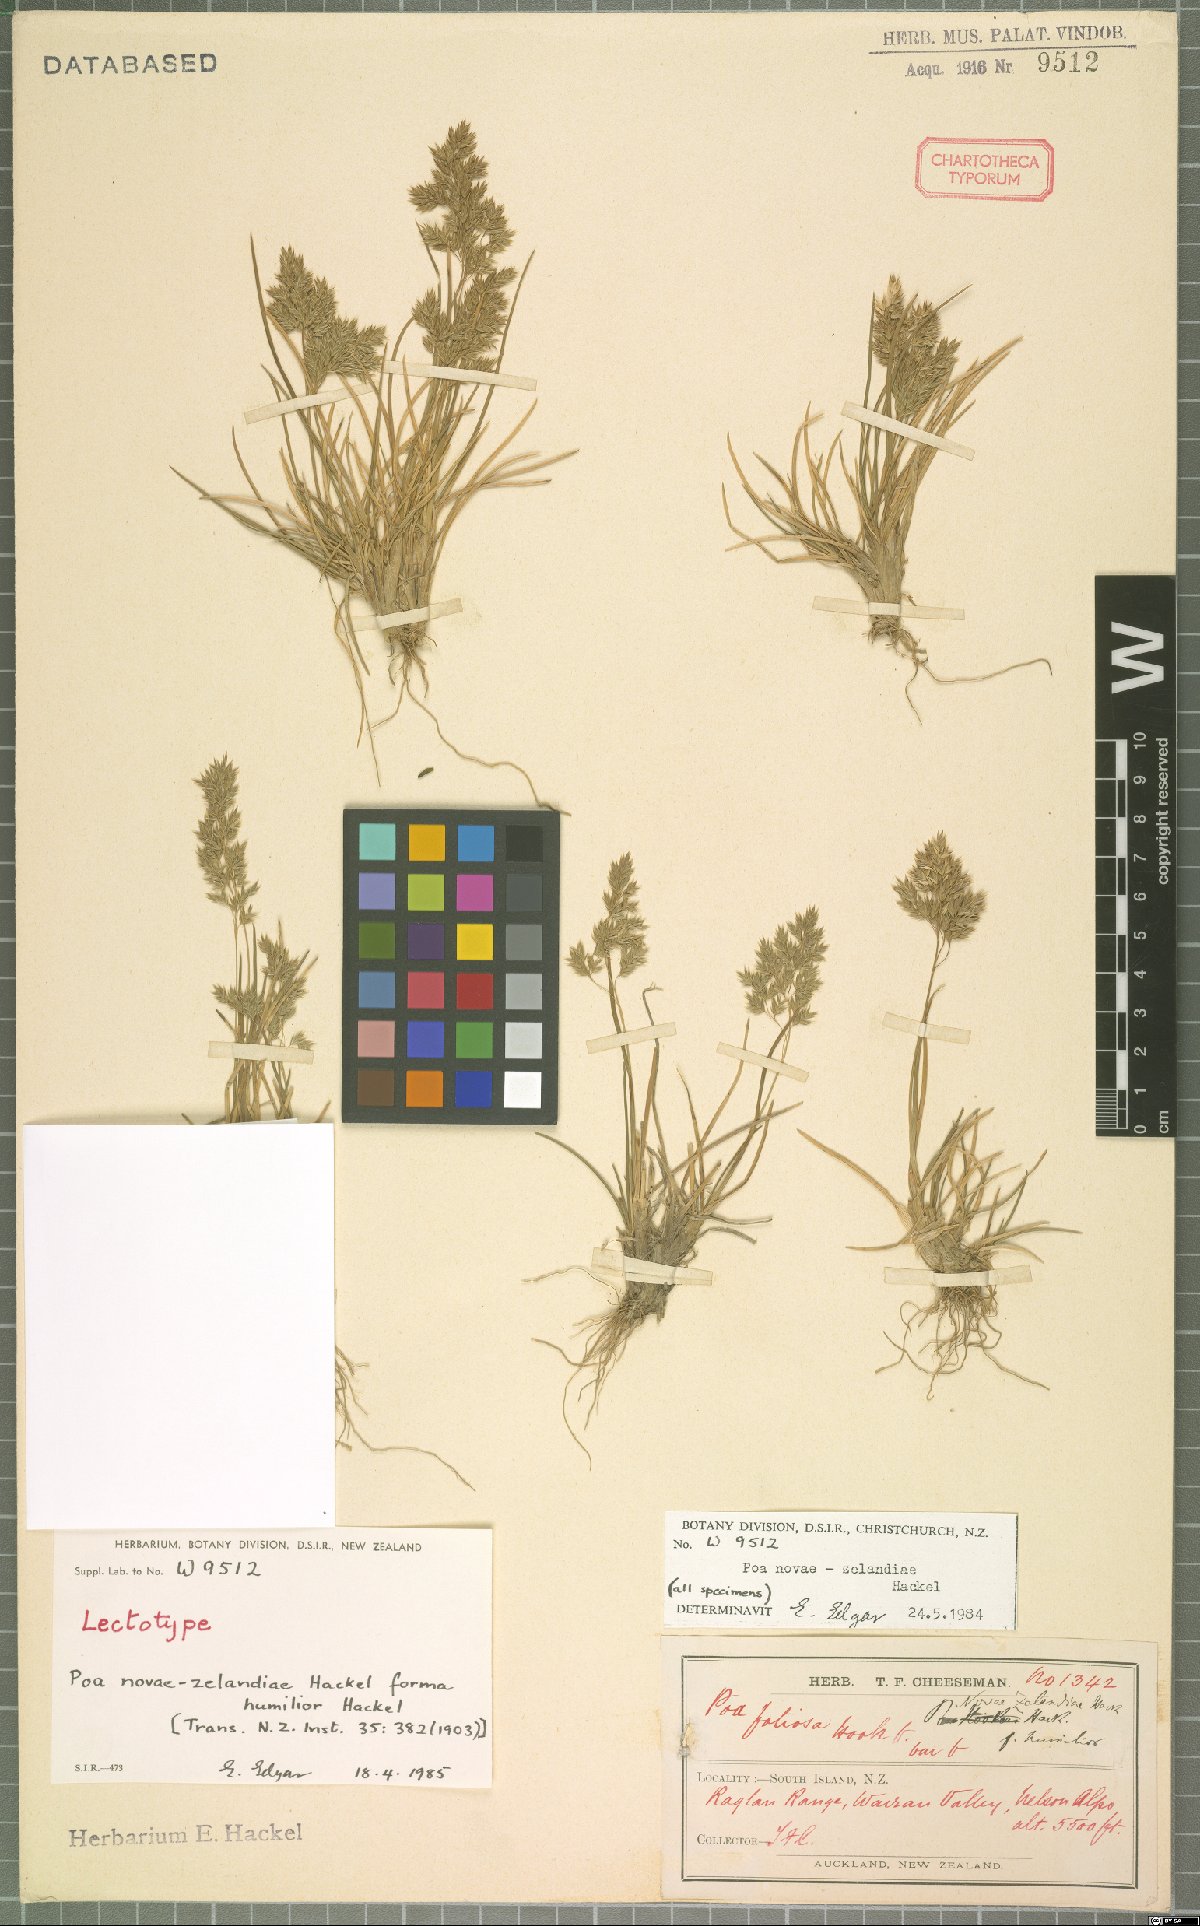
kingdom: Plantae
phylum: Tracheophyta
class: Liliopsida
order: Poales
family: Poaceae
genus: Poa
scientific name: Poa novae-zelandiae
